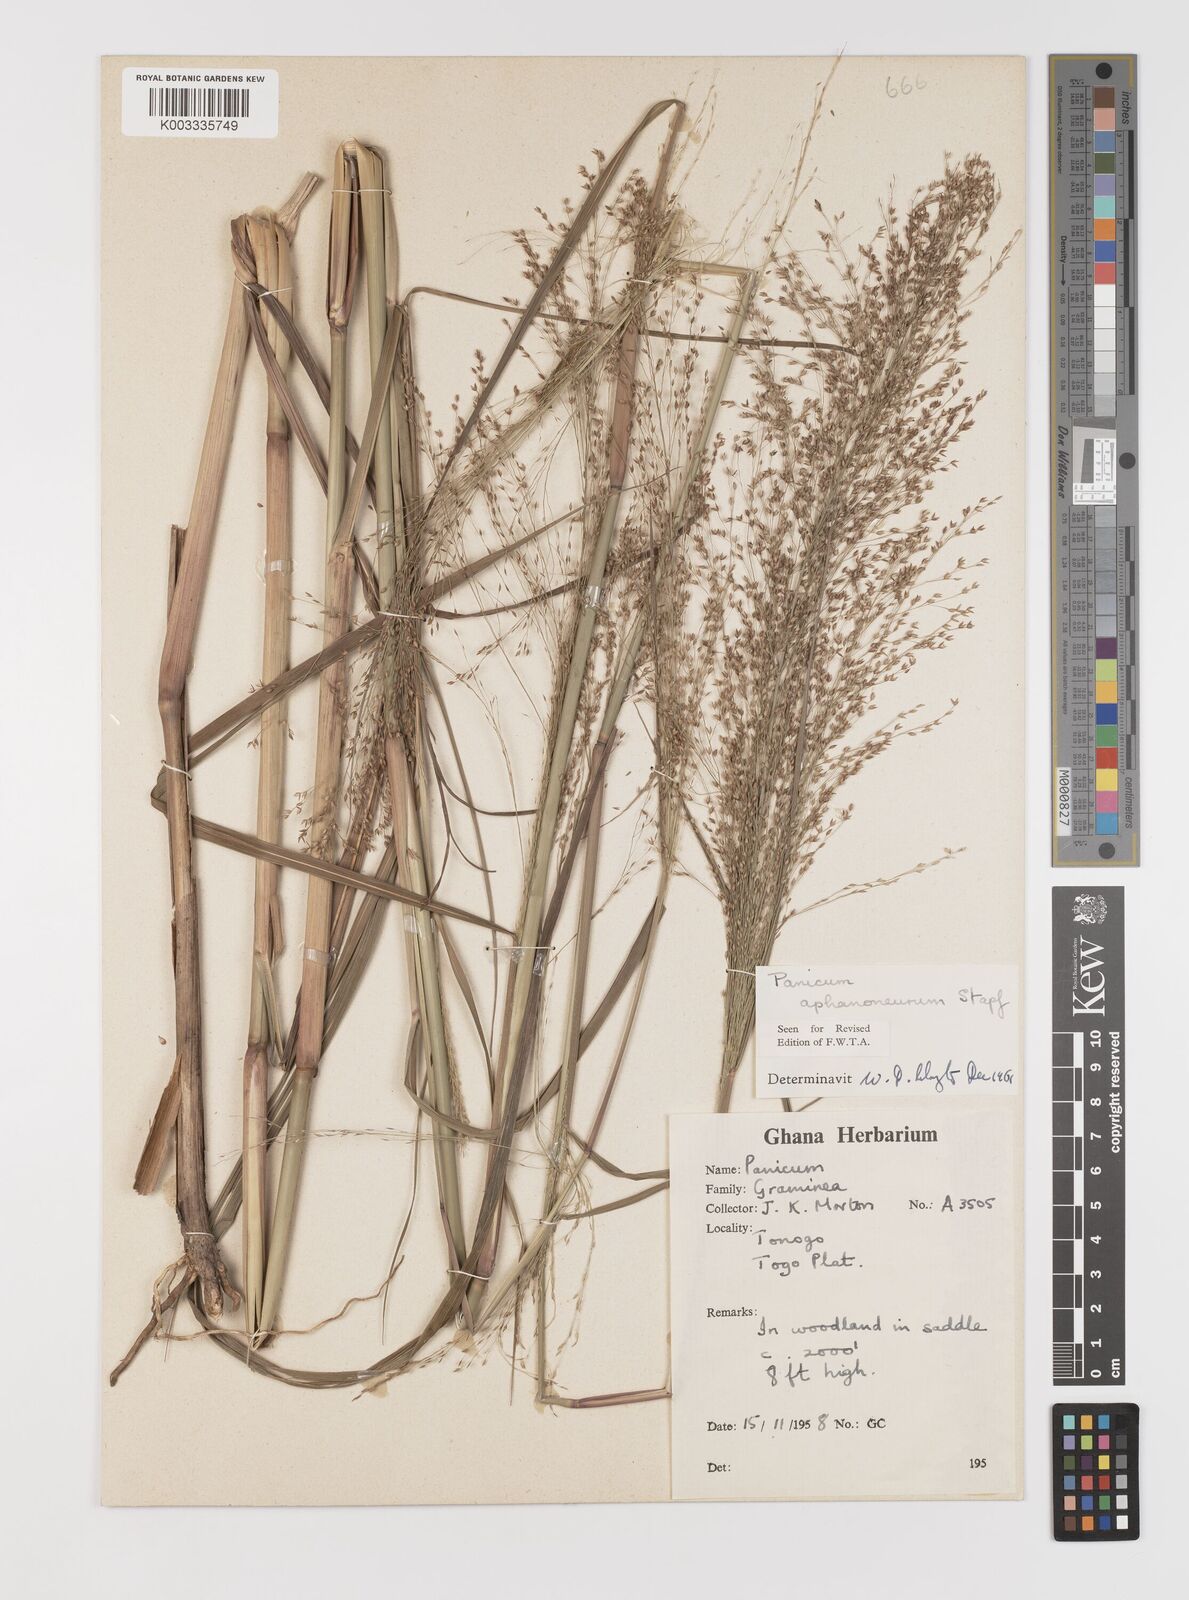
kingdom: Plantae
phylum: Tracheophyta
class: Liliopsida
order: Poales
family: Poaceae
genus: Panicum
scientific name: Panicum fluviicola
